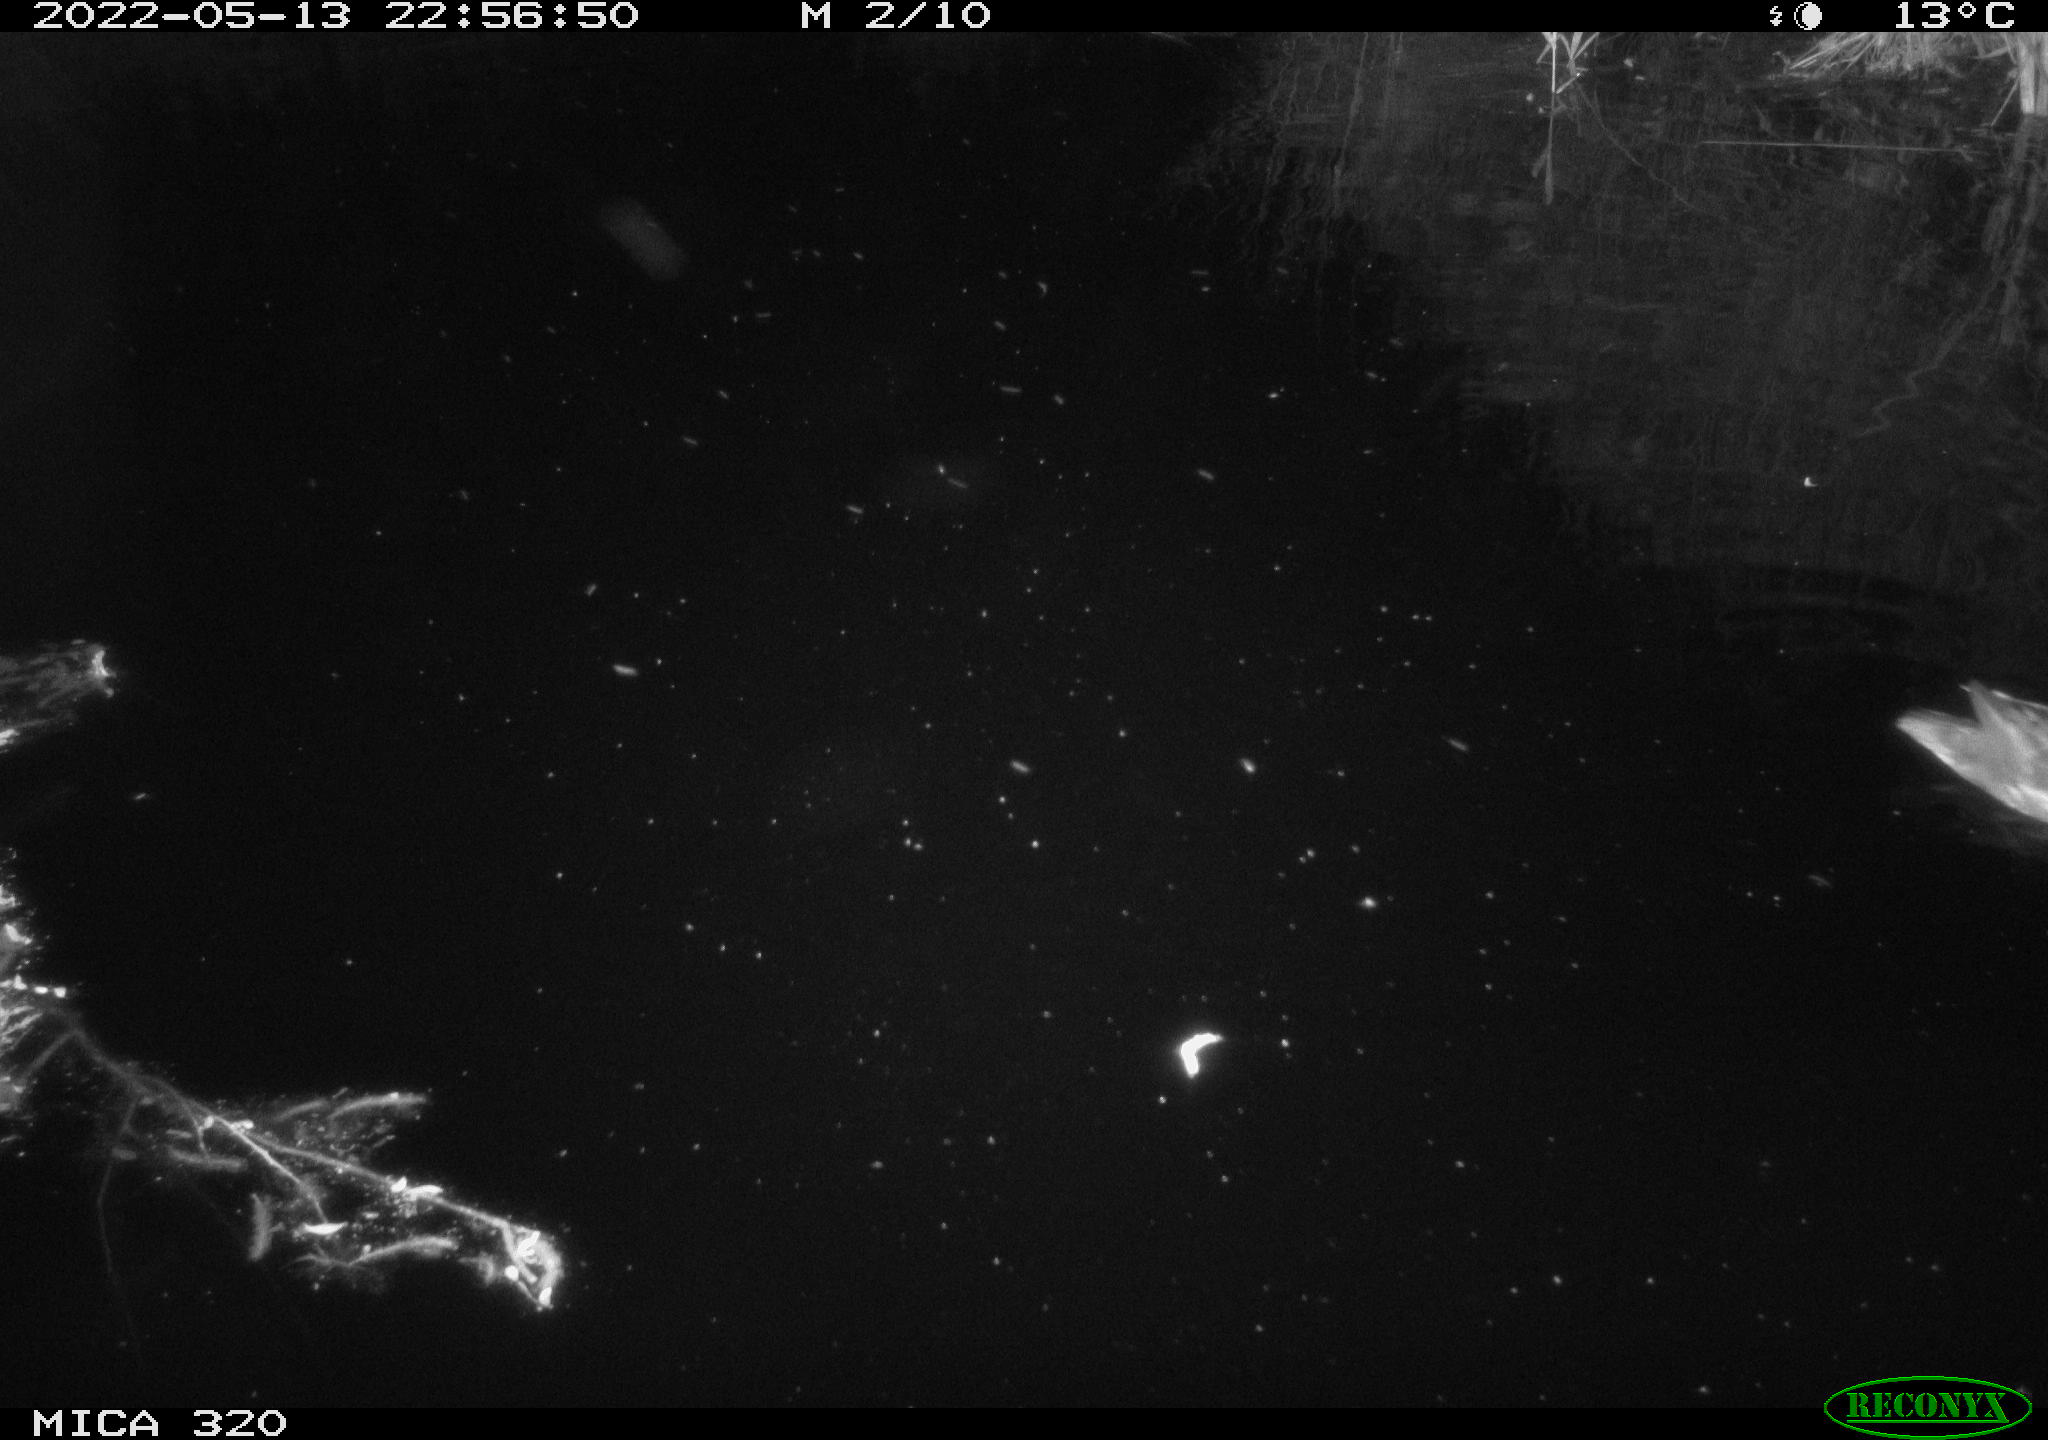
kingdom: Animalia
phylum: Chordata
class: Aves
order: Anseriformes
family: Anatidae
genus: Anas
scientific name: Anas platyrhynchos
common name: Mallard
